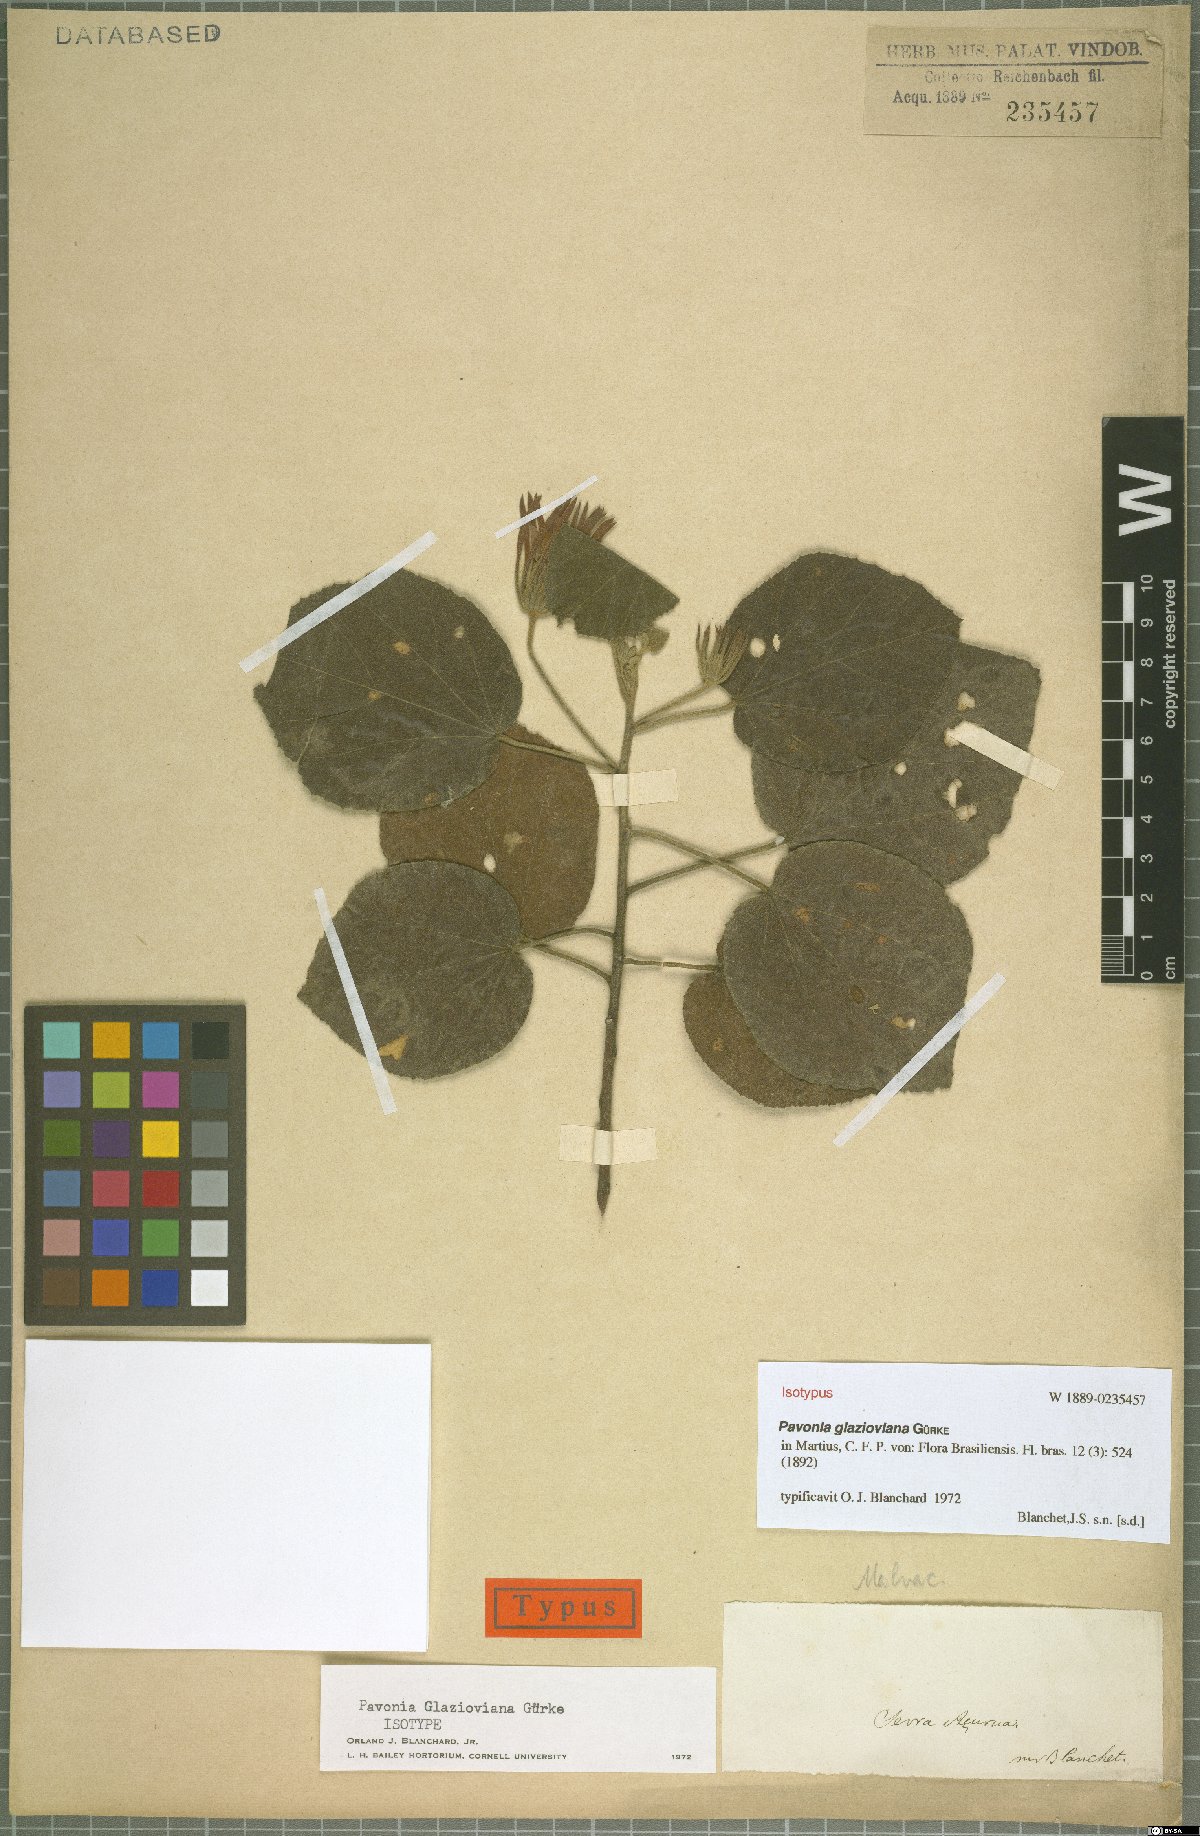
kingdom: Plantae
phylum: Tracheophyta
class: Magnoliopsida
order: Malvales
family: Malvaceae
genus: Pavonia
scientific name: Pavonia glazioviana
